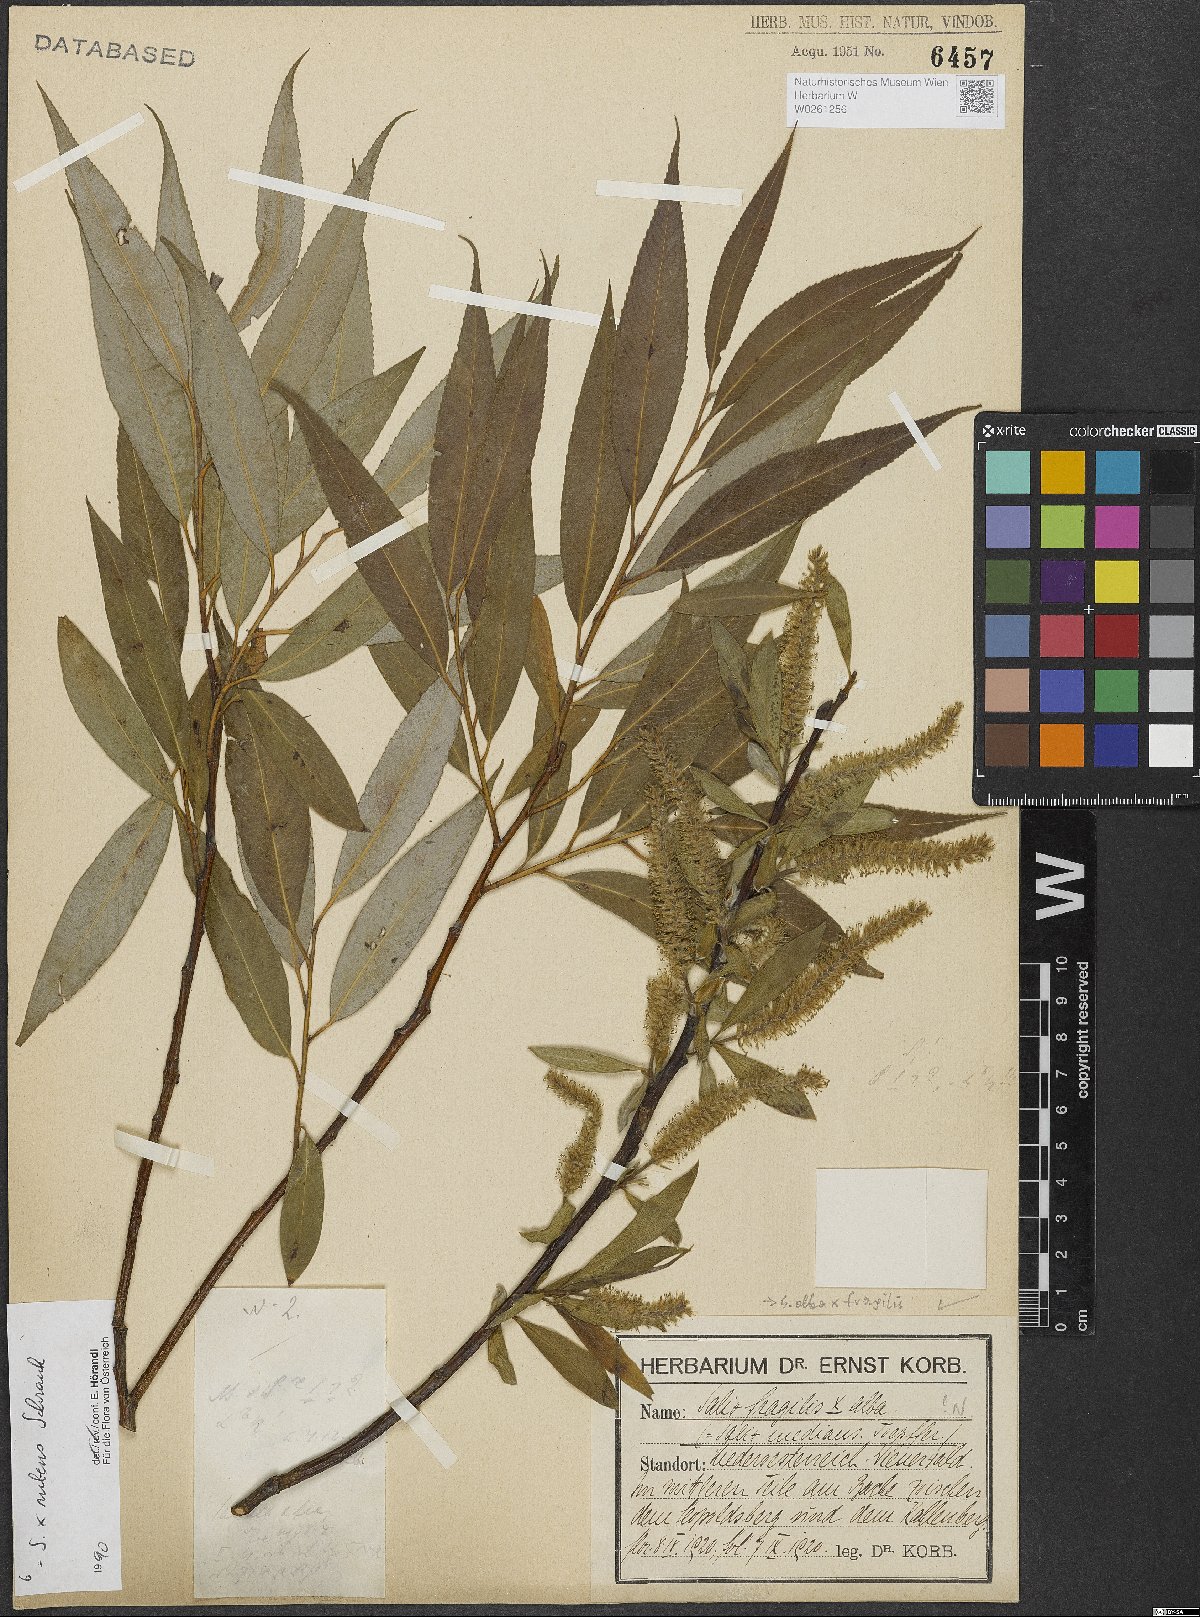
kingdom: Plantae
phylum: Tracheophyta
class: Magnoliopsida
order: Malpighiales
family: Salicaceae
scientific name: Salicaceae
